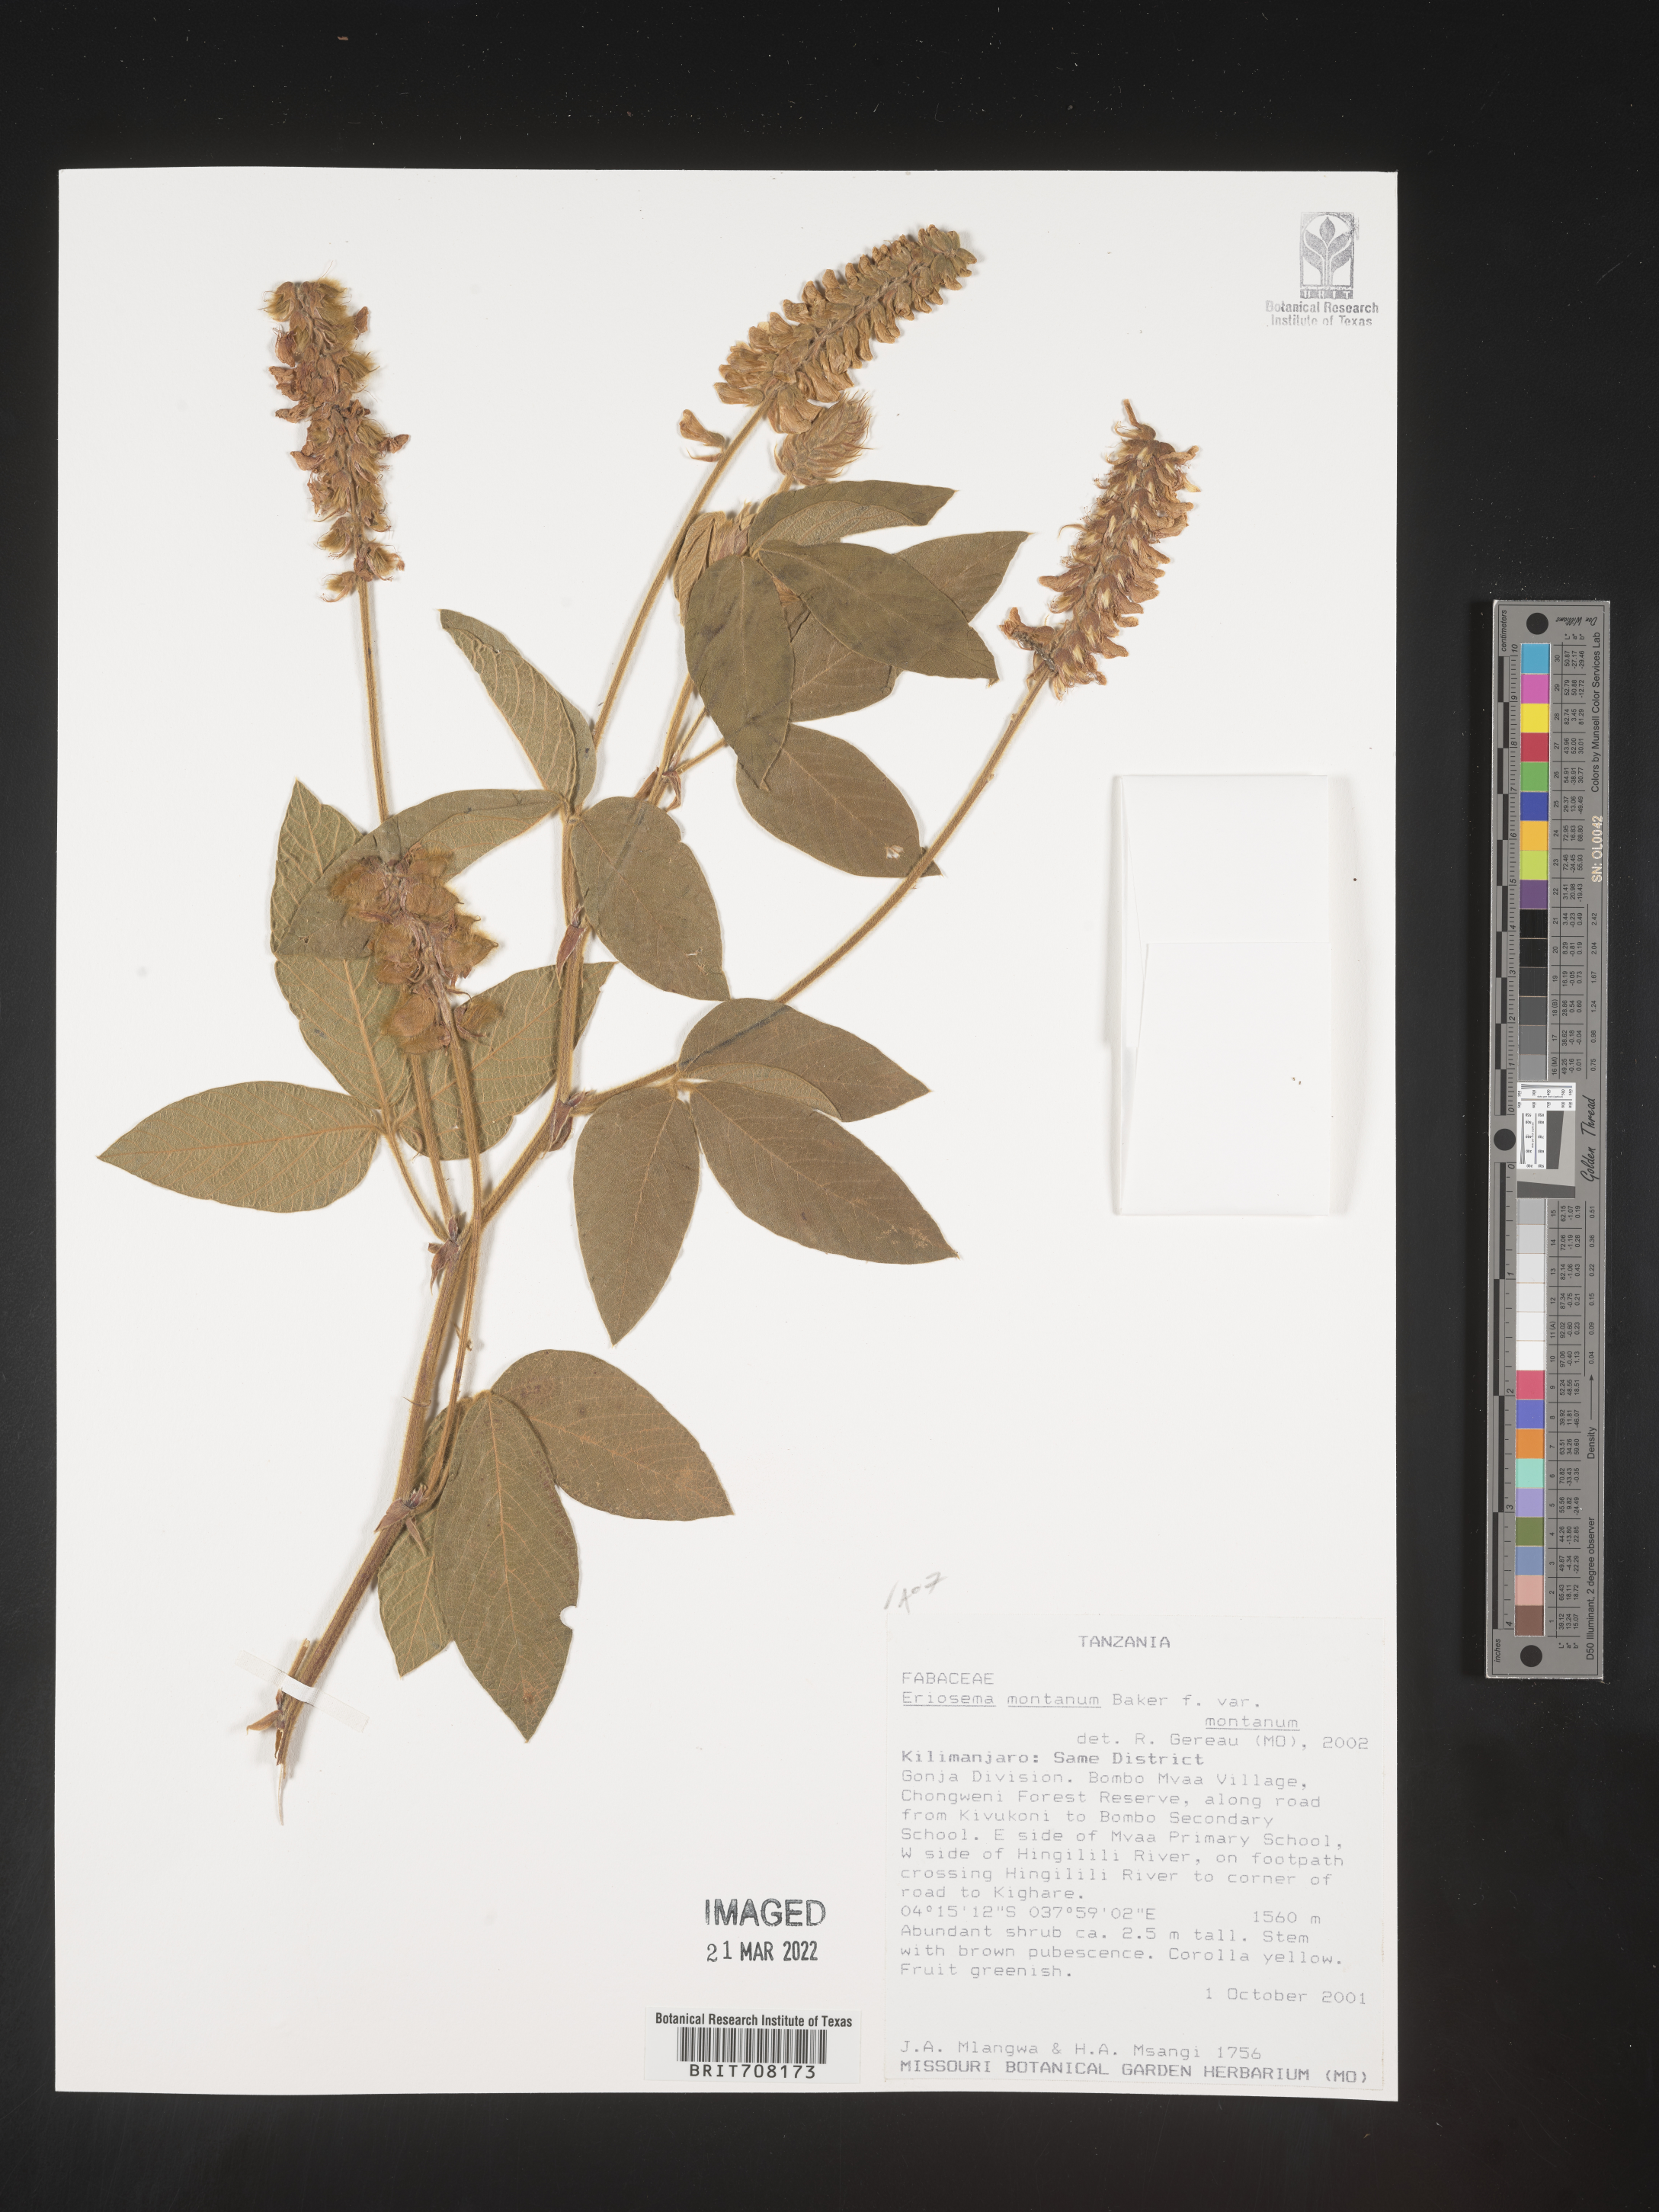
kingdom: Plantae
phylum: Tracheophyta
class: Magnoliopsida
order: Fabales
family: Fabaceae
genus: Eriosema
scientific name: Eriosema
